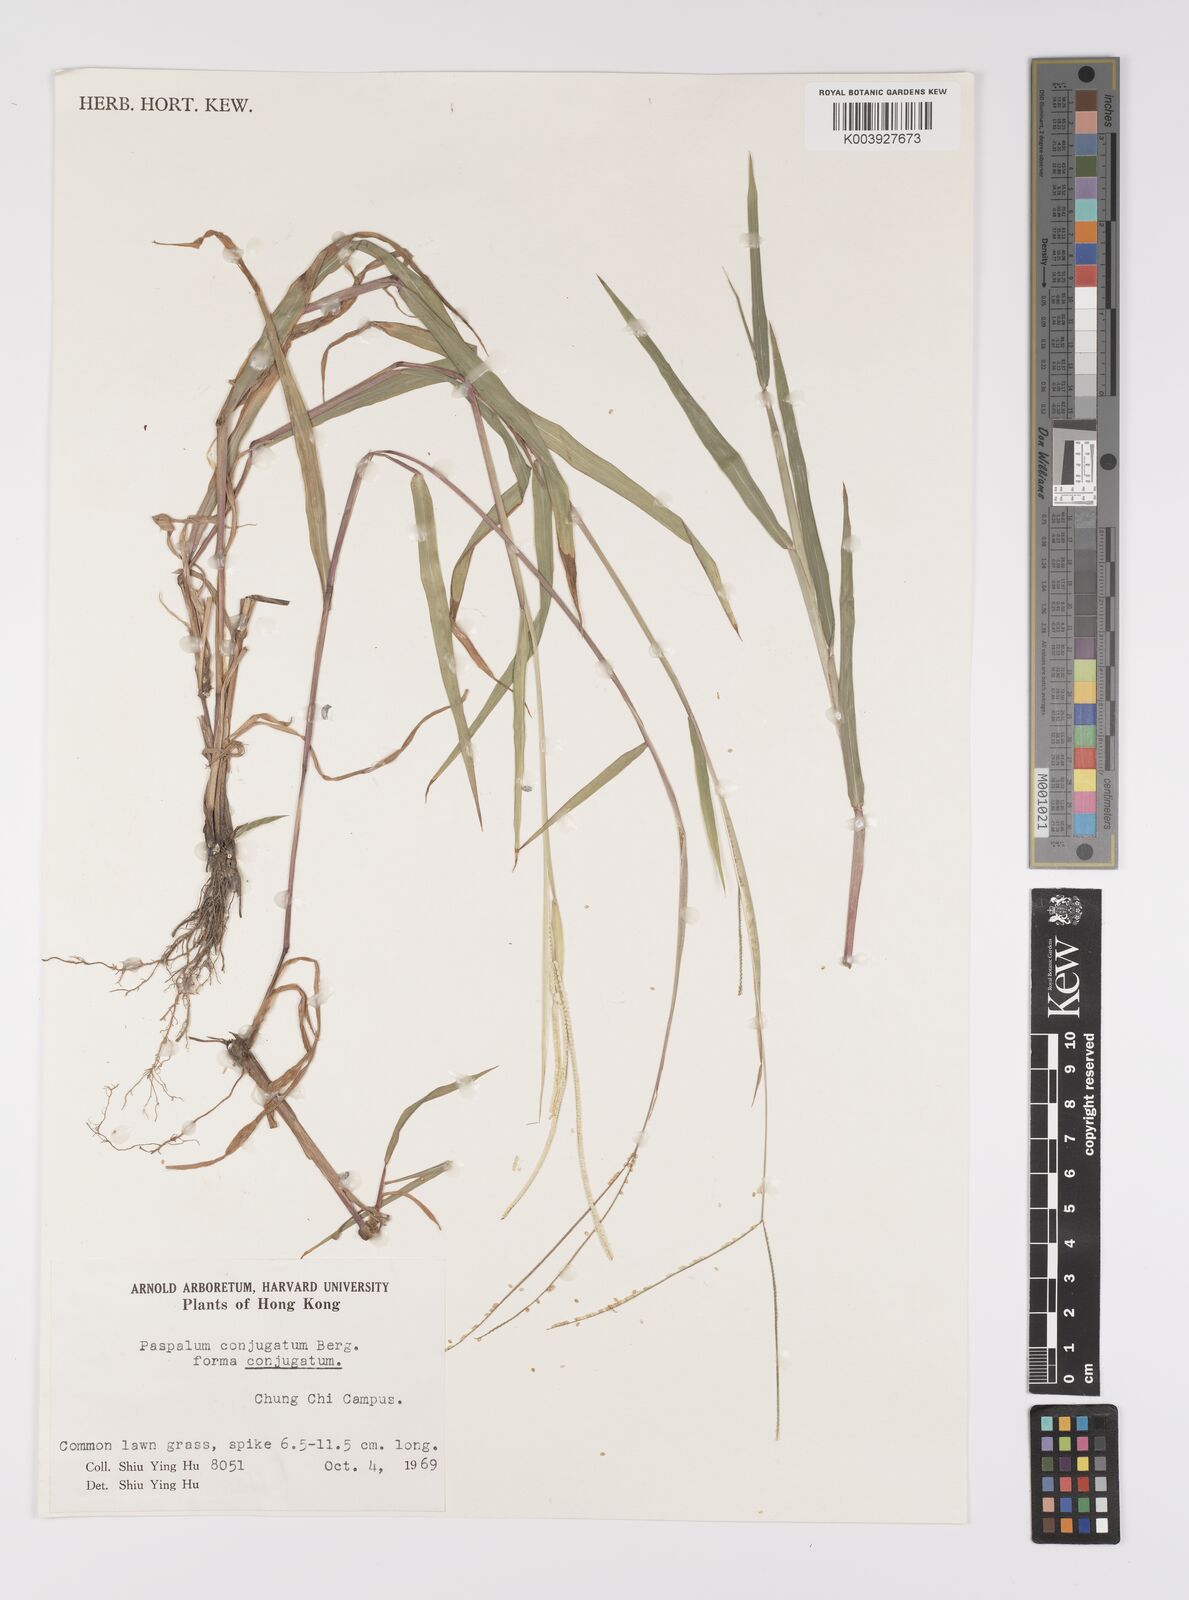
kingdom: Plantae
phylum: Tracheophyta
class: Liliopsida
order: Poales
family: Poaceae
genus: Paspalum
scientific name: Paspalum conjugatum
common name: Hilograss
